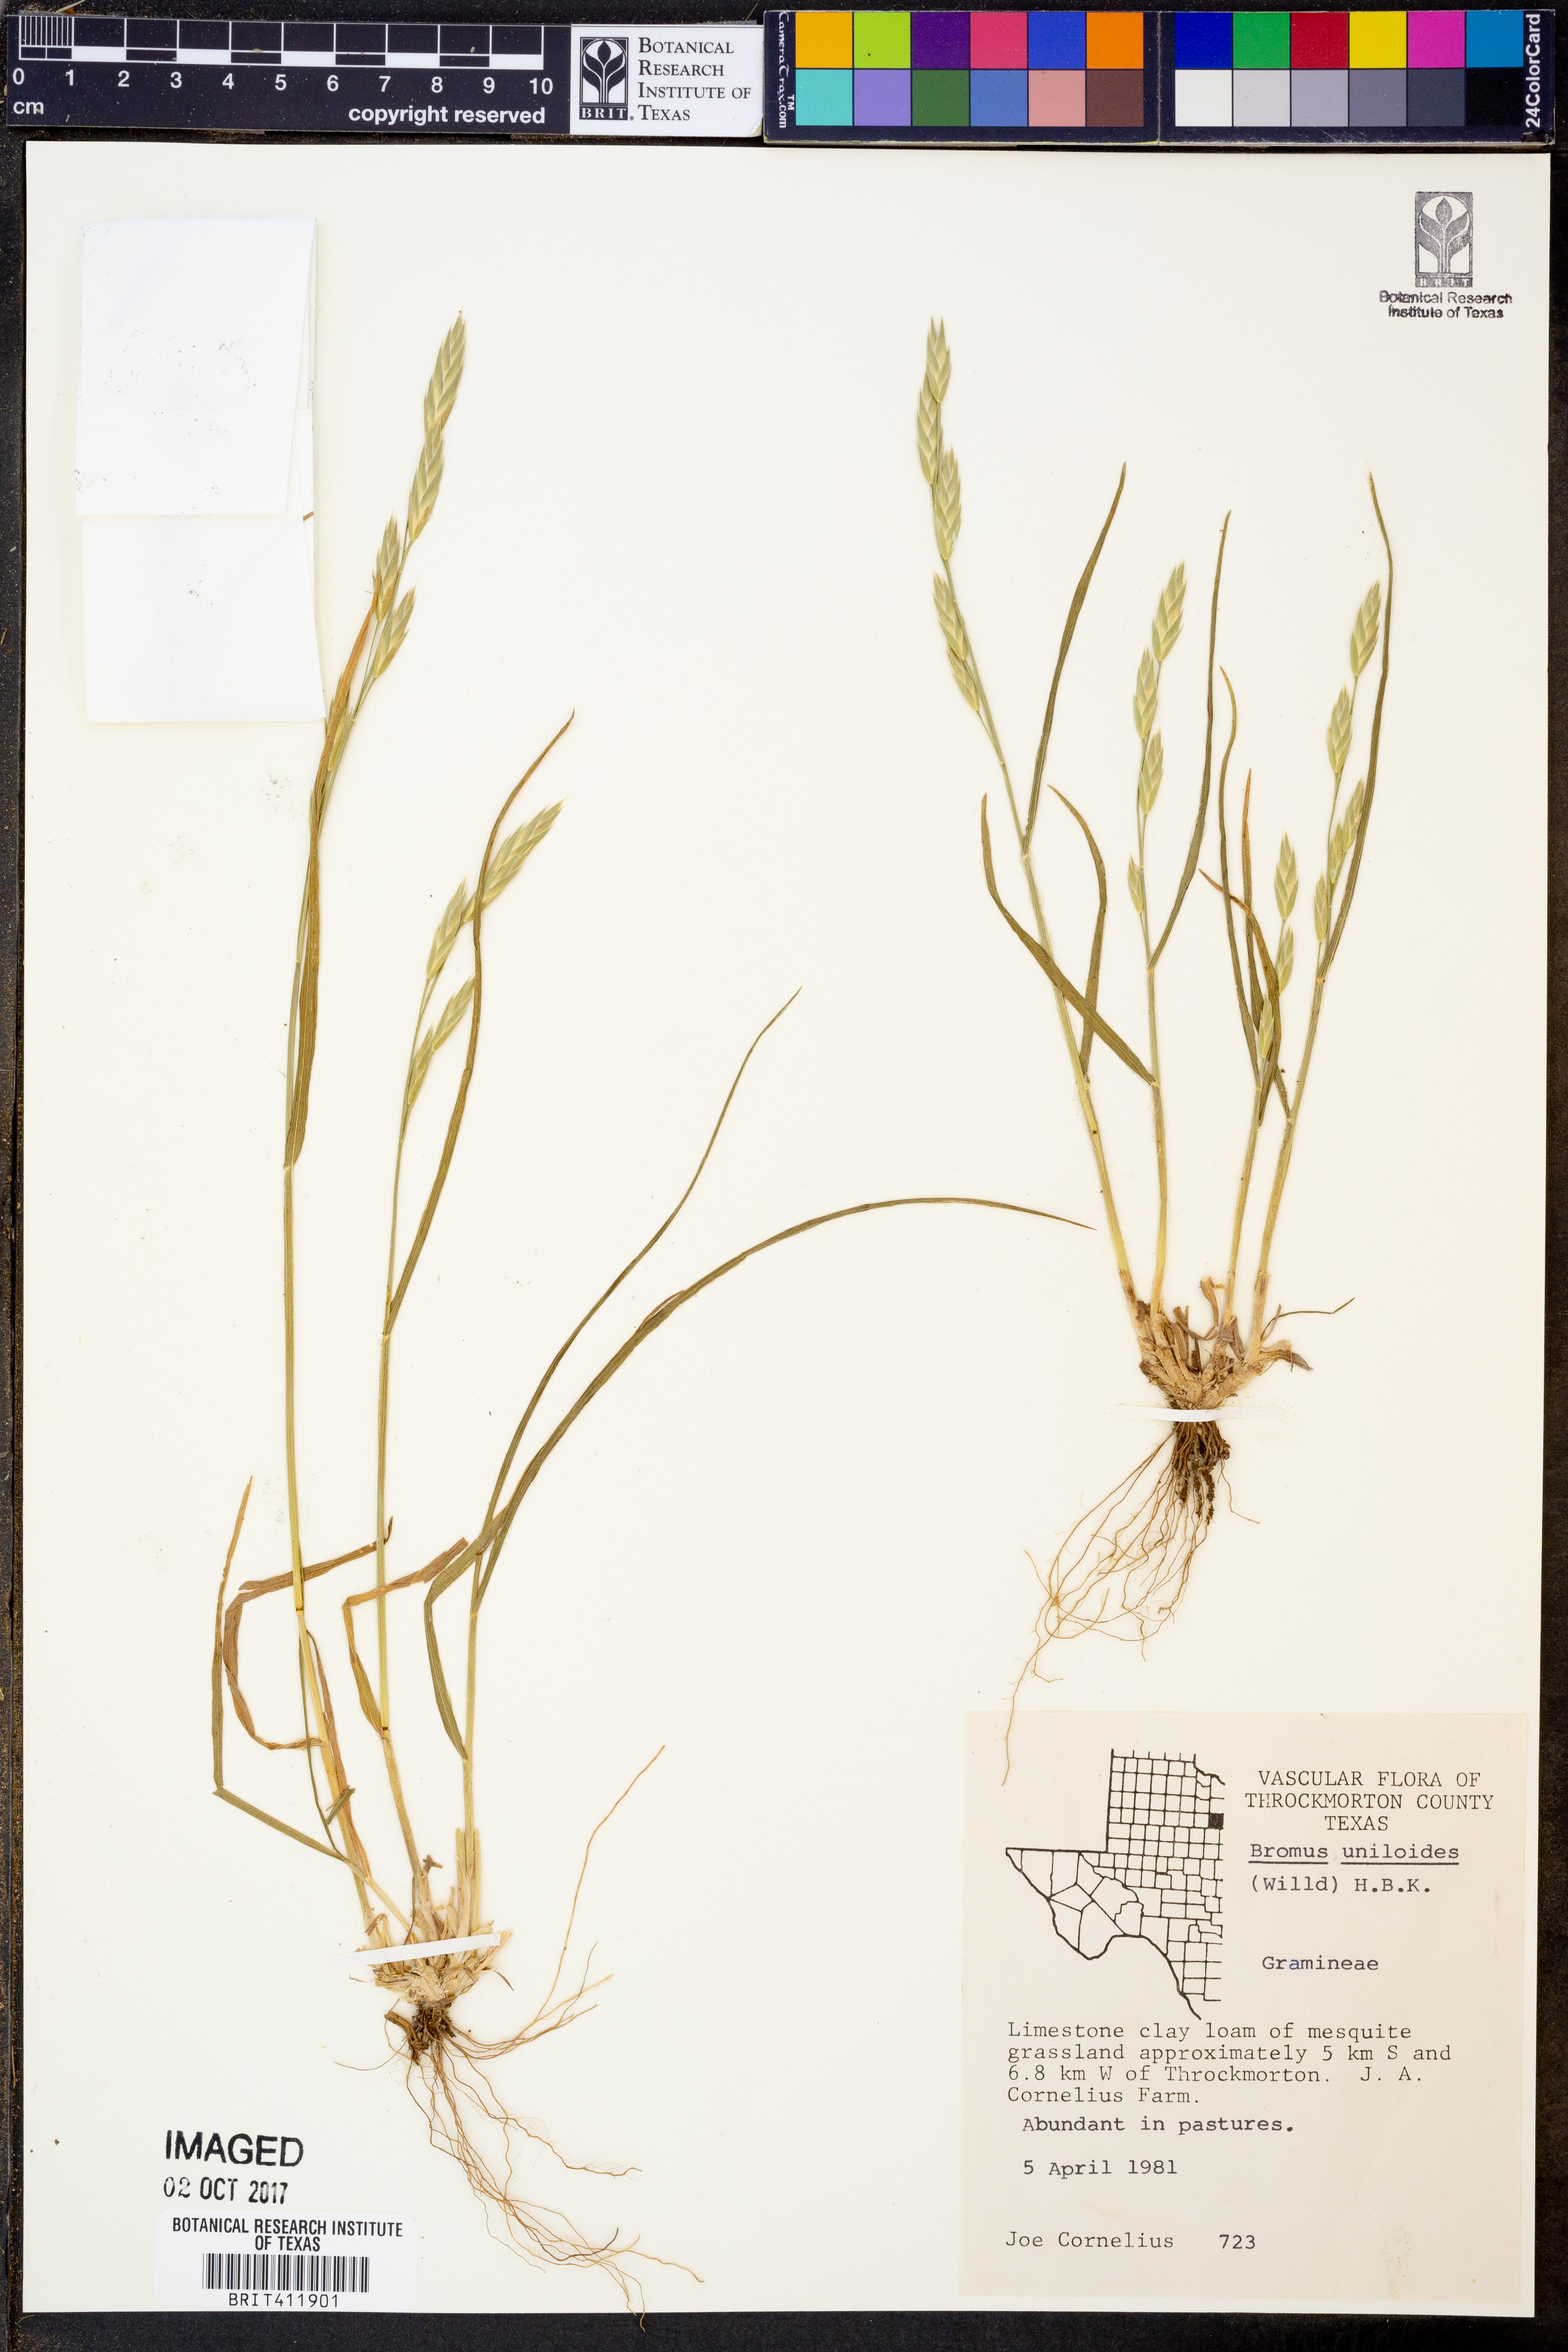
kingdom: Plantae
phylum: Tracheophyta
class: Liliopsida
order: Poales
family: Poaceae
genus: Bromus
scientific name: Bromus catharticus
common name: Rescuegrass
